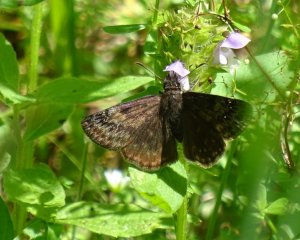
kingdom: Animalia
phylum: Arthropoda
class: Insecta
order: Lepidoptera
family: Hesperiidae
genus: Gesta
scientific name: Gesta
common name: Wild Indigo Duskywing
